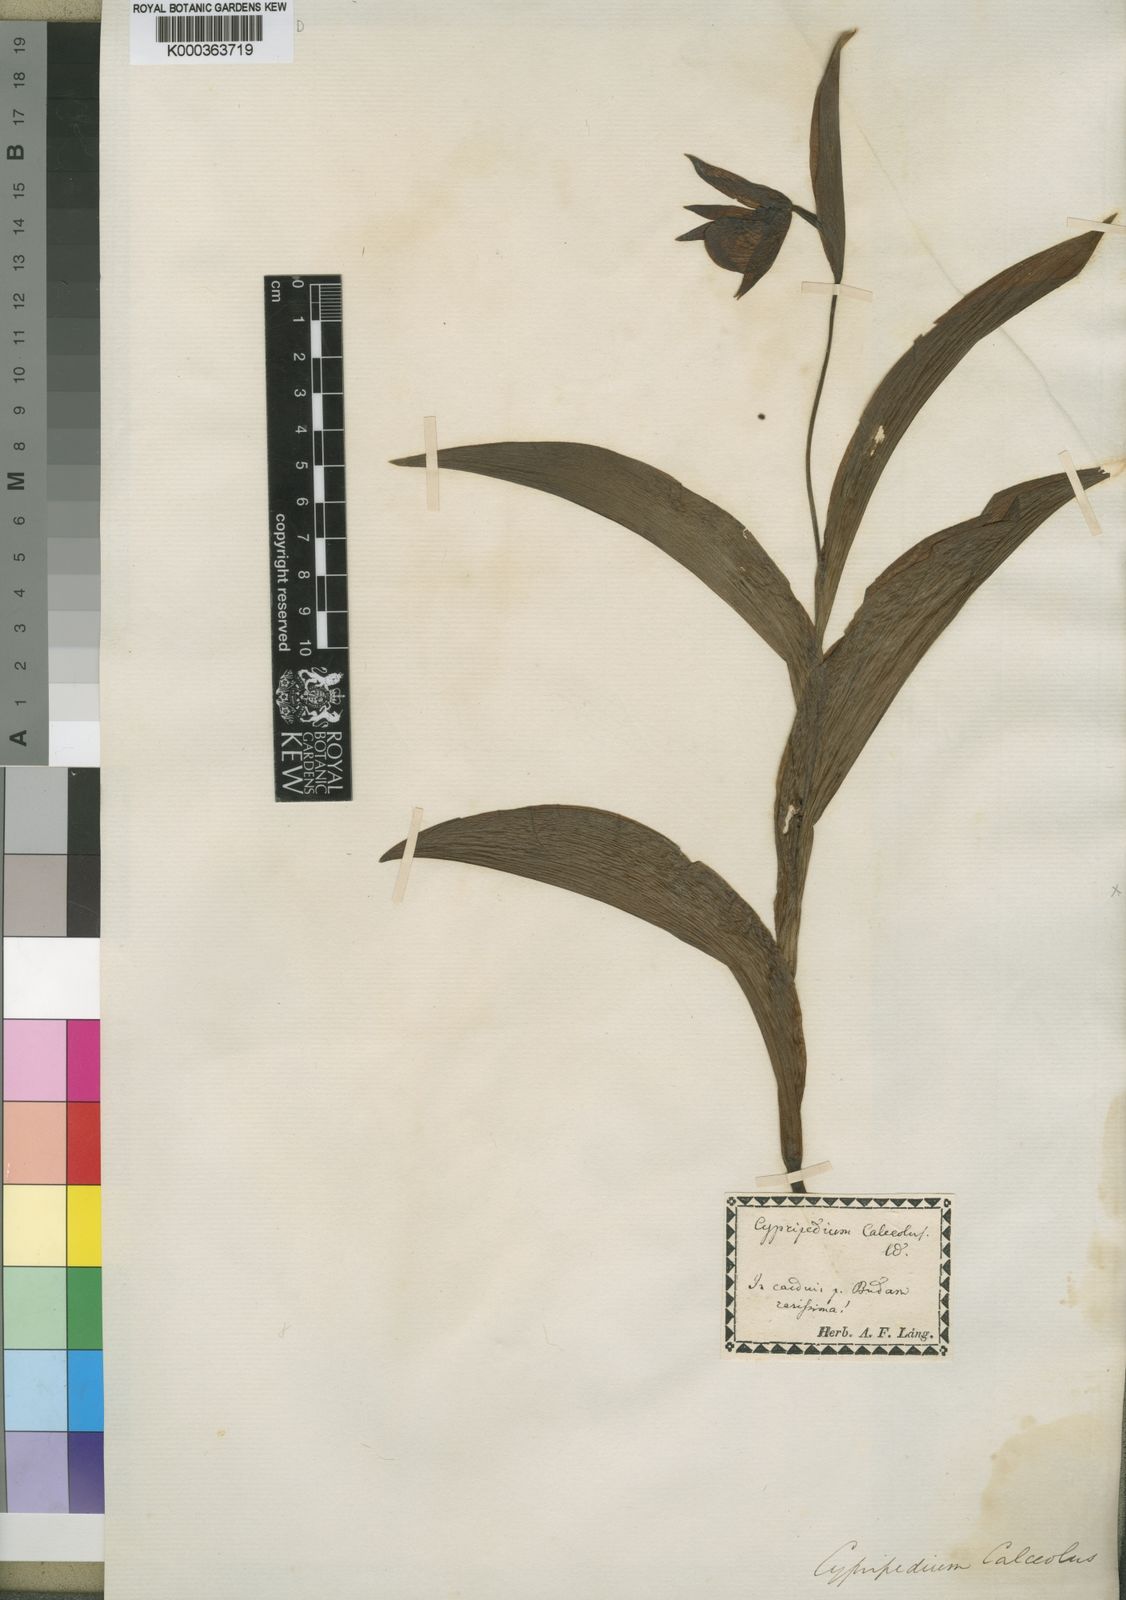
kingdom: Plantae
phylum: Tracheophyta
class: Liliopsida
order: Asparagales
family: Orchidaceae
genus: Cypripedium
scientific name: Cypripedium calceolus
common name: Lady's-slipper
